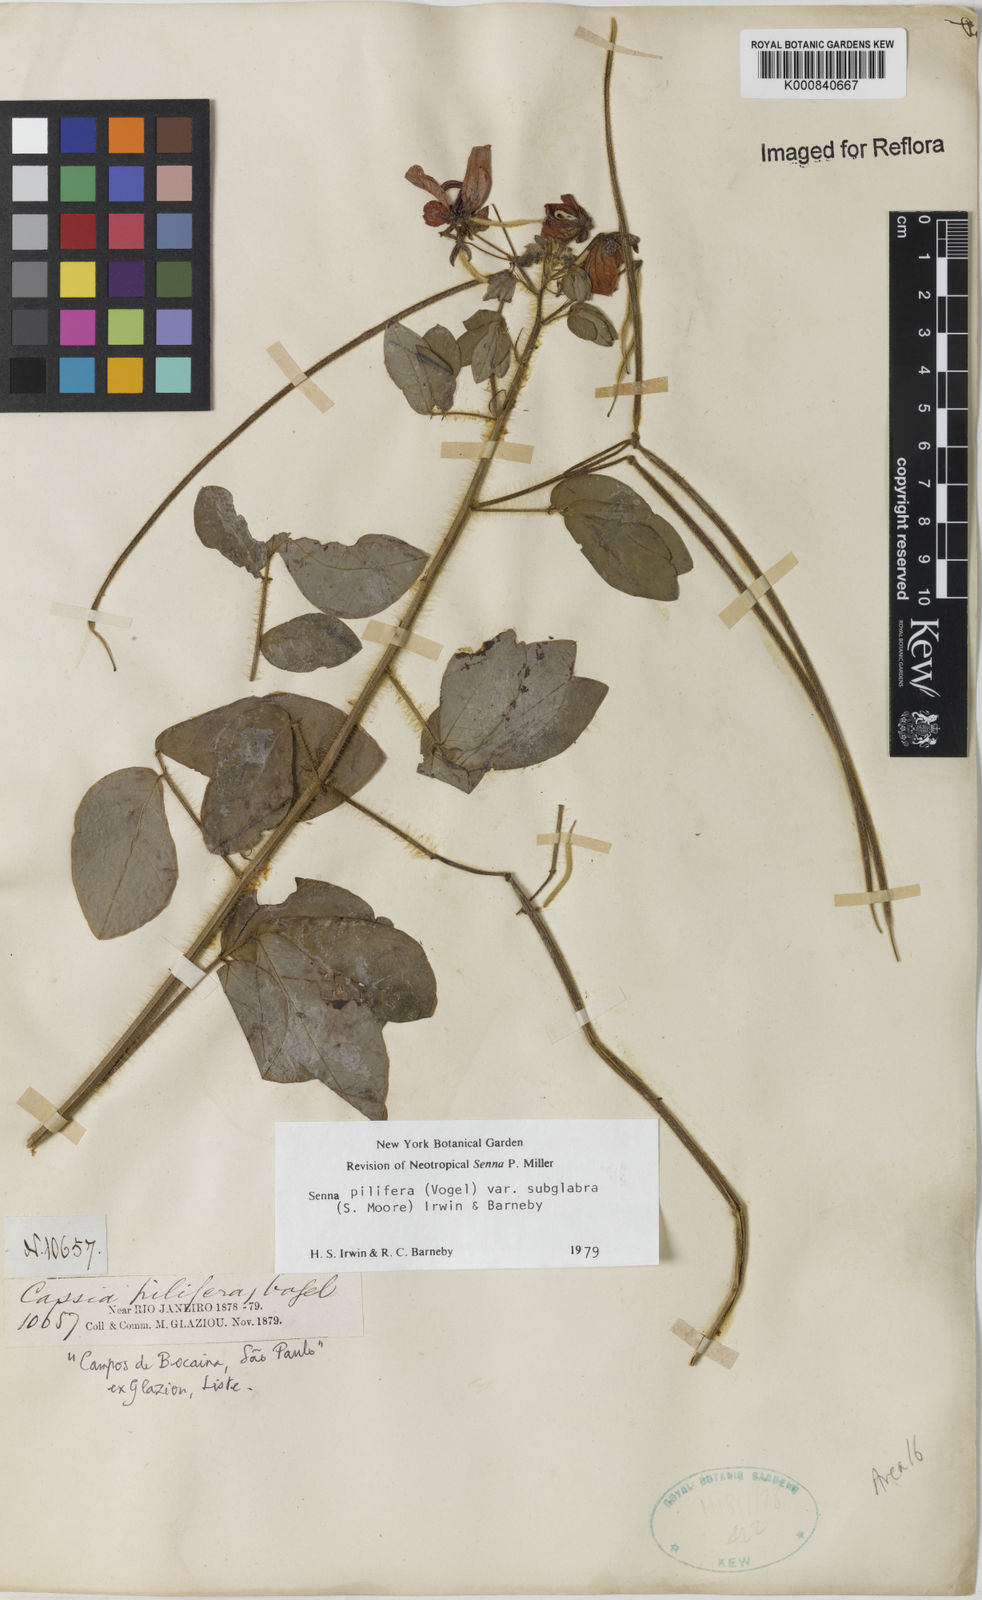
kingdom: Plantae
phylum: Tracheophyta
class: Magnoliopsida
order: Fabales
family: Fabaceae
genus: Senna
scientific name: Senna pilifera
